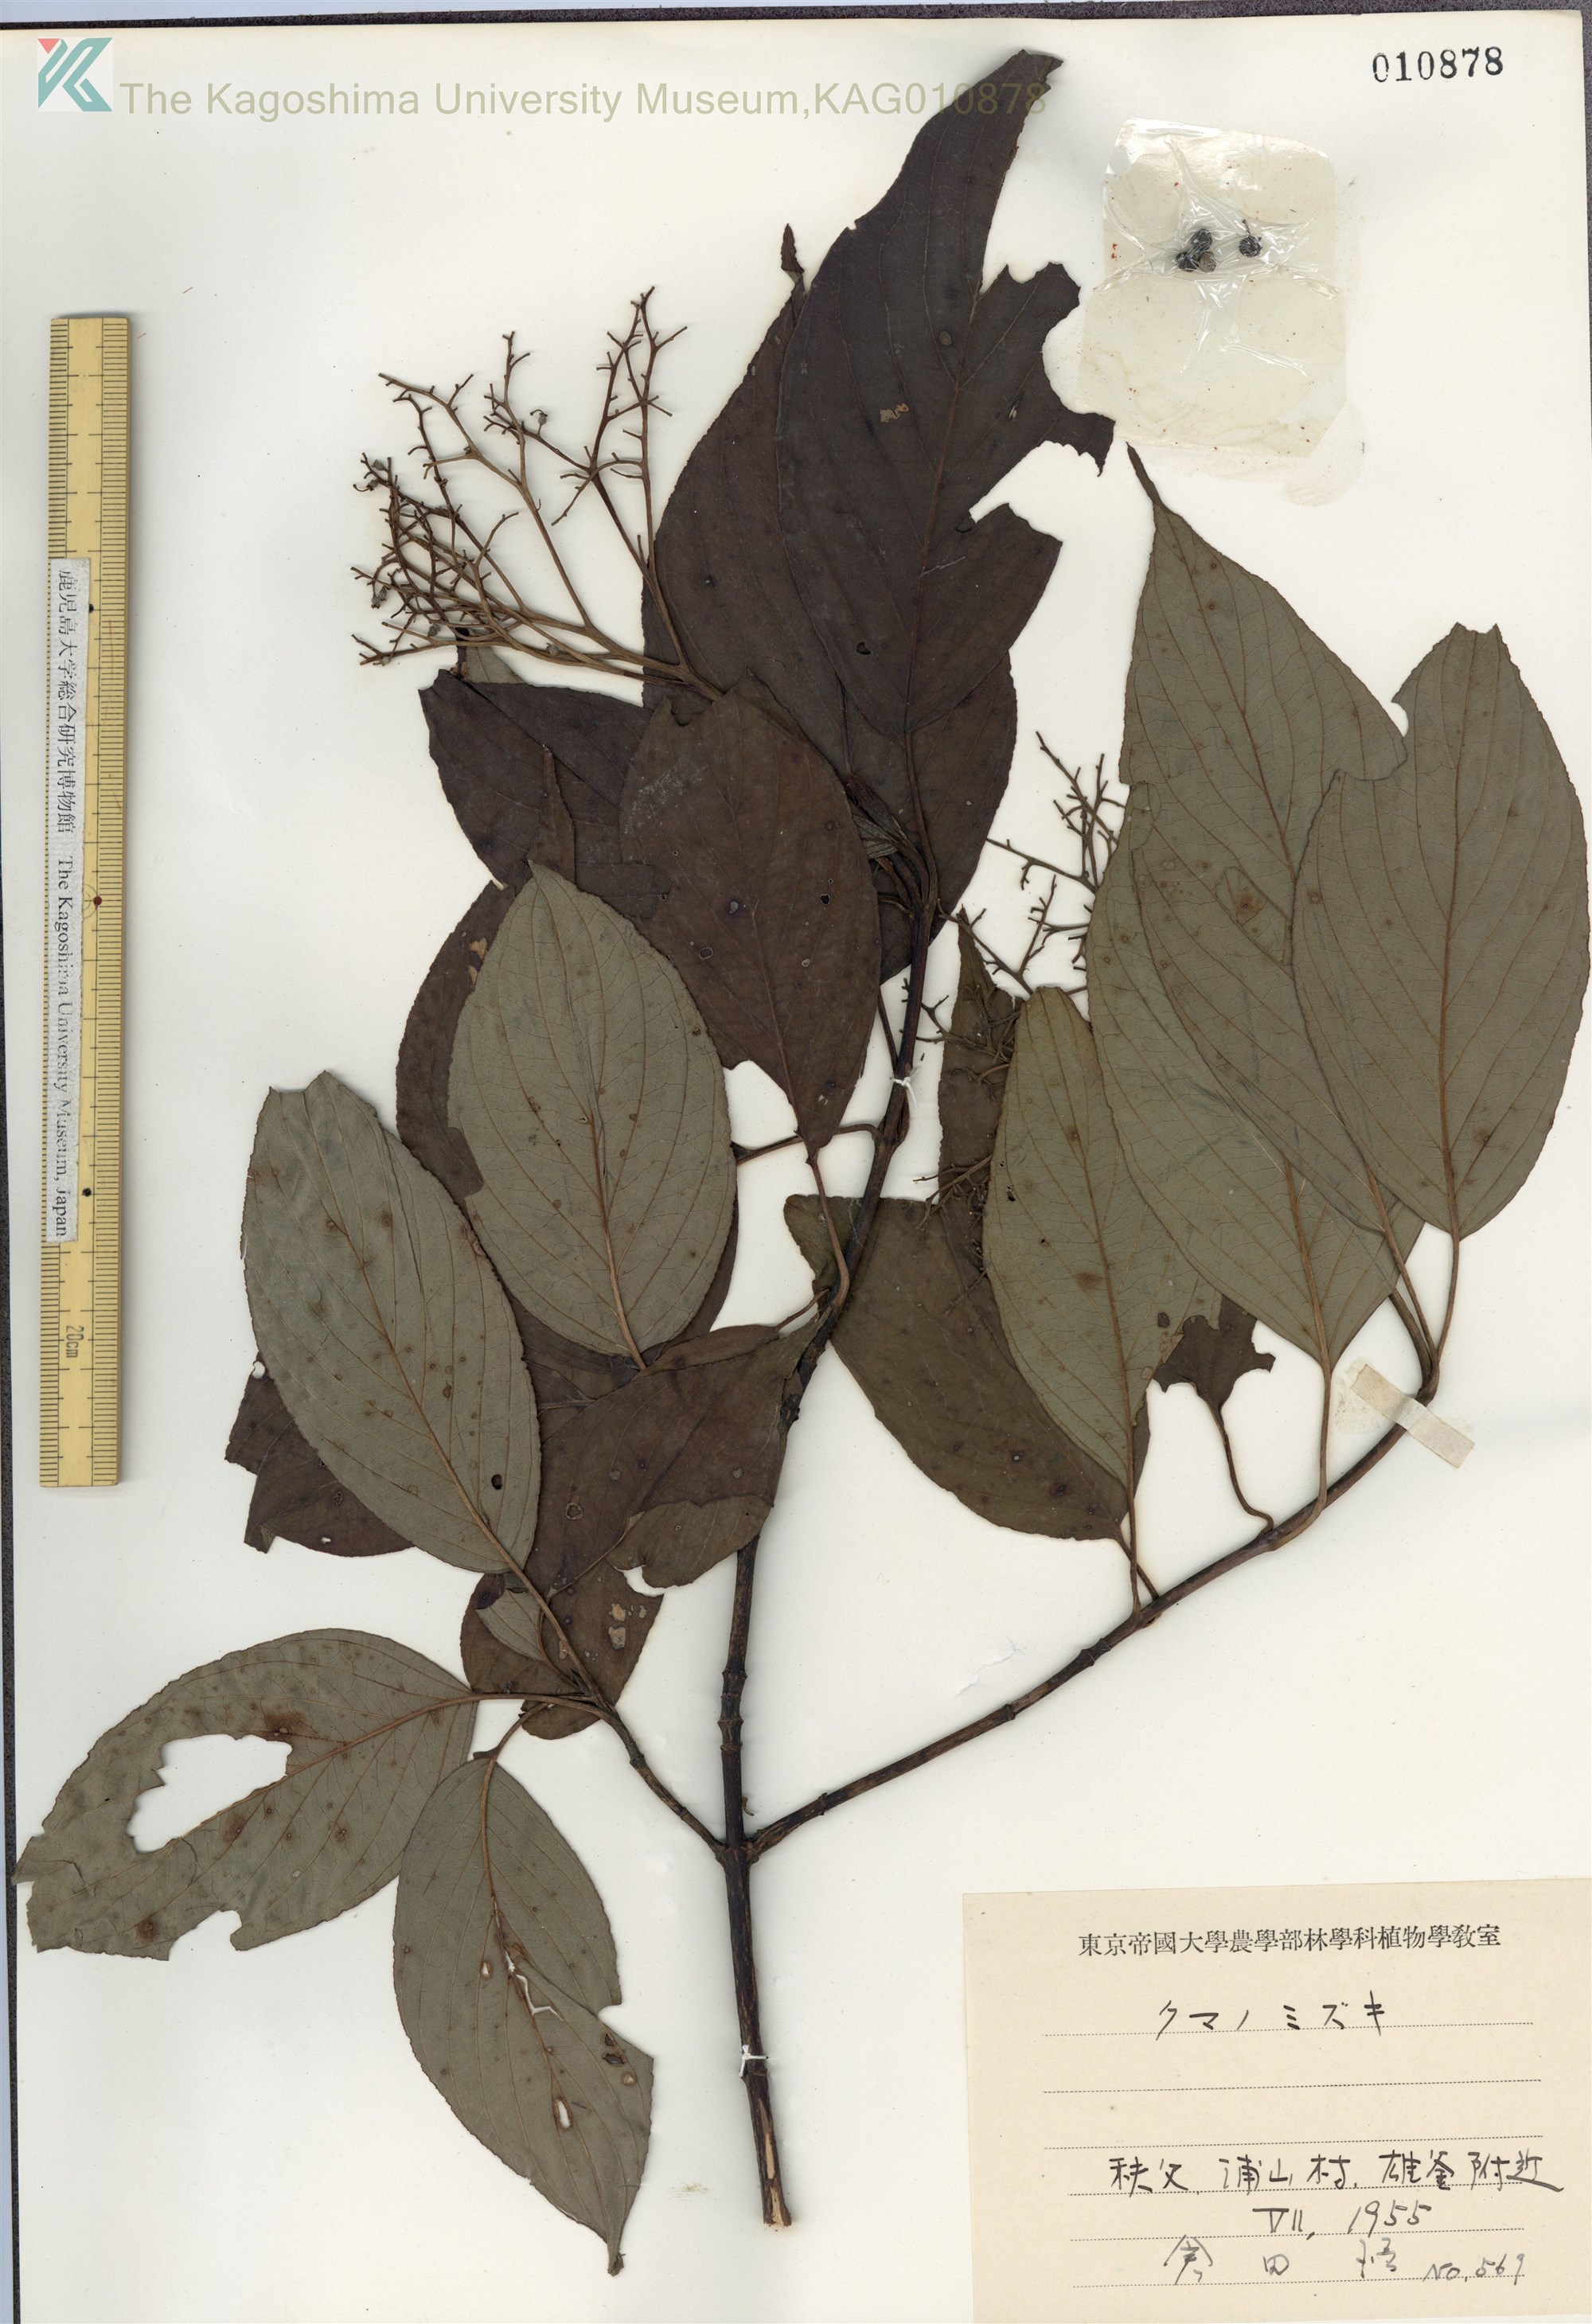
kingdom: Plantae
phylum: Tracheophyta
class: Magnoliopsida
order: Cornales
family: Cornaceae
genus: Cornus
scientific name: Cornus macrophylla
